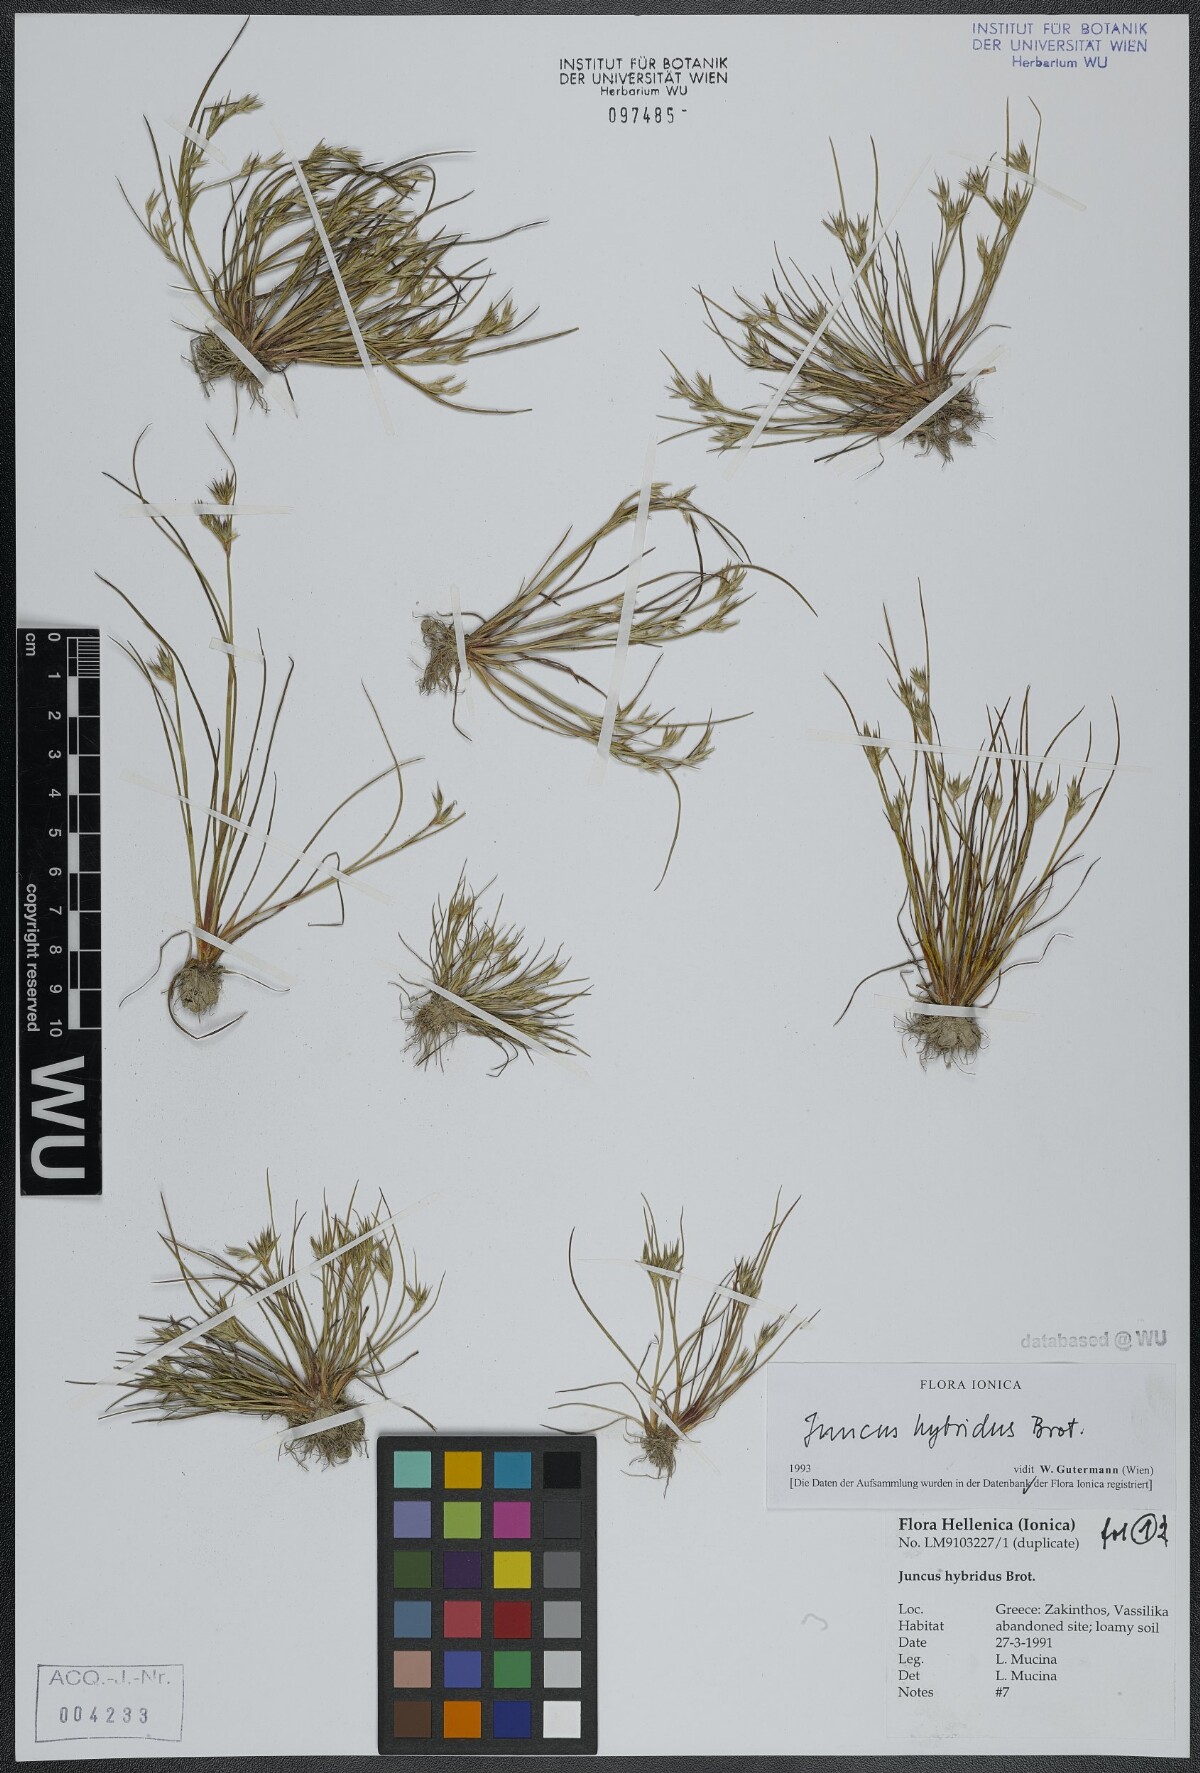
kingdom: Plantae
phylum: Tracheophyta
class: Liliopsida
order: Poales
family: Juncaceae
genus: Juncus
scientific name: Juncus hybridus
